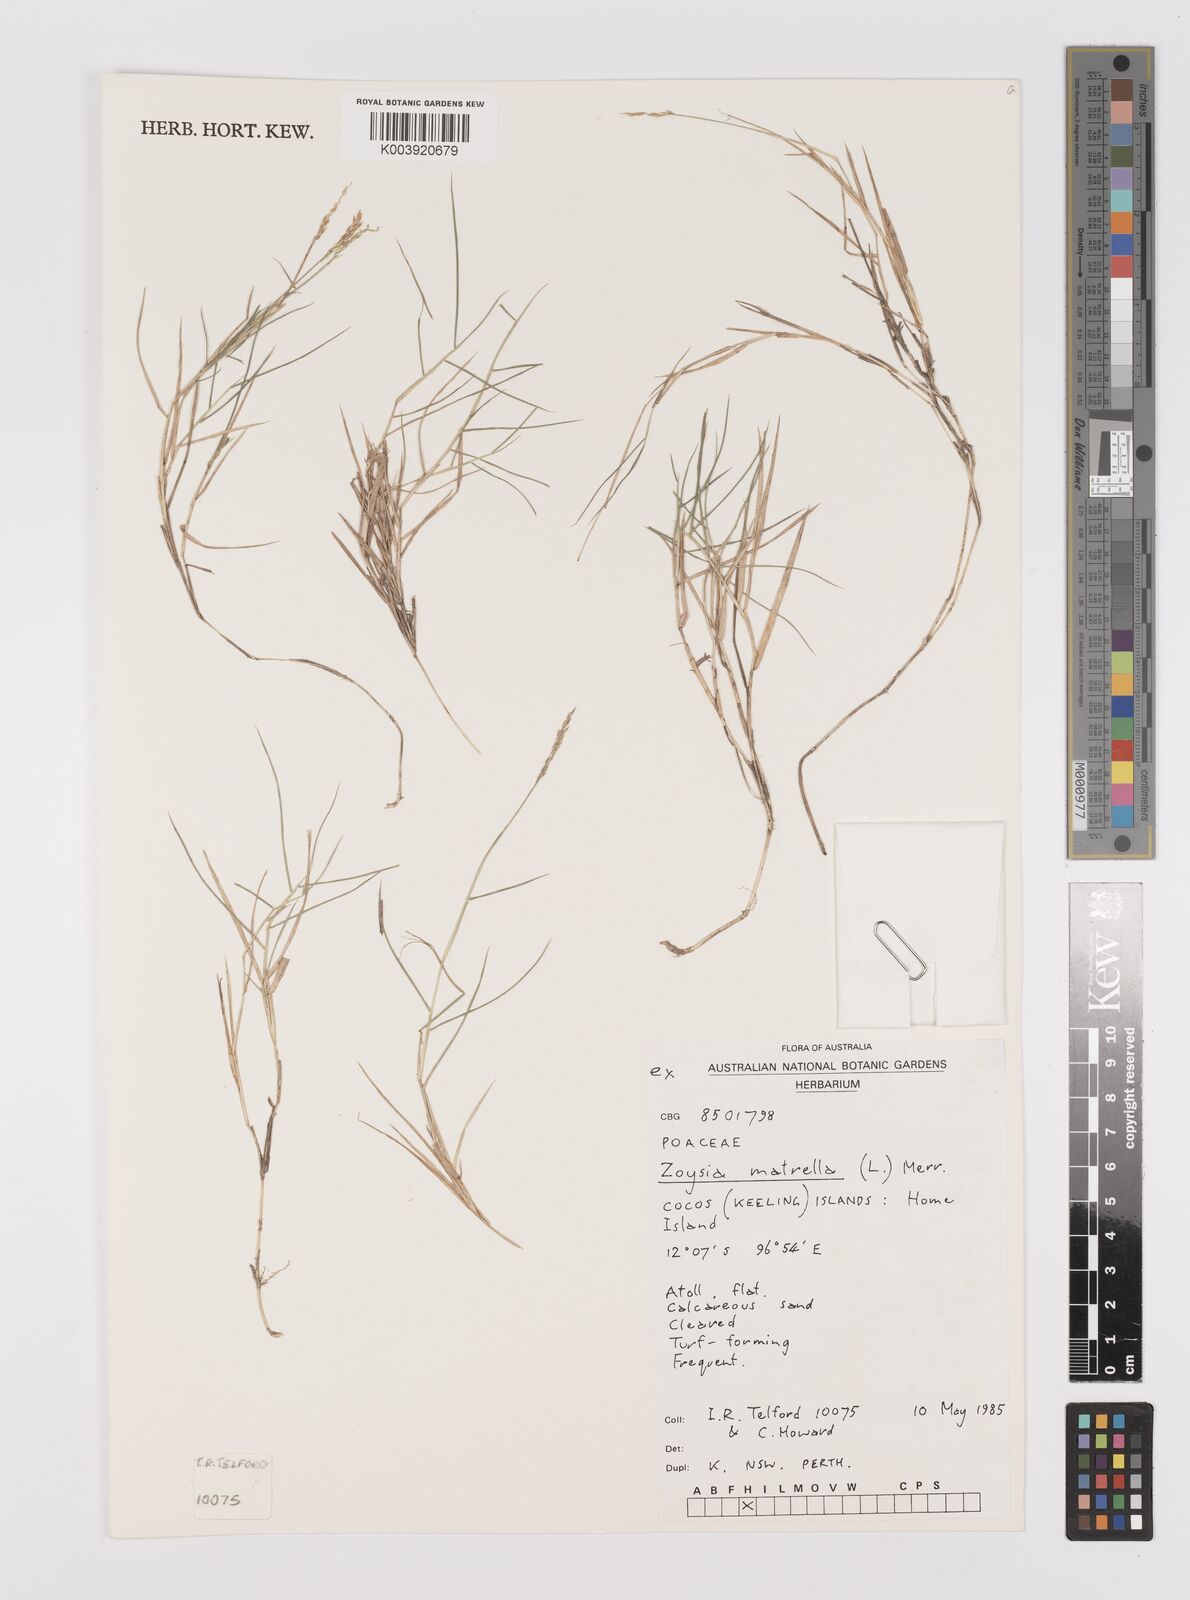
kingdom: Plantae
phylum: Tracheophyta
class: Liliopsida
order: Poales
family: Poaceae
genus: Zoysia
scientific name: Zoysia matrella
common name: Manila grass
